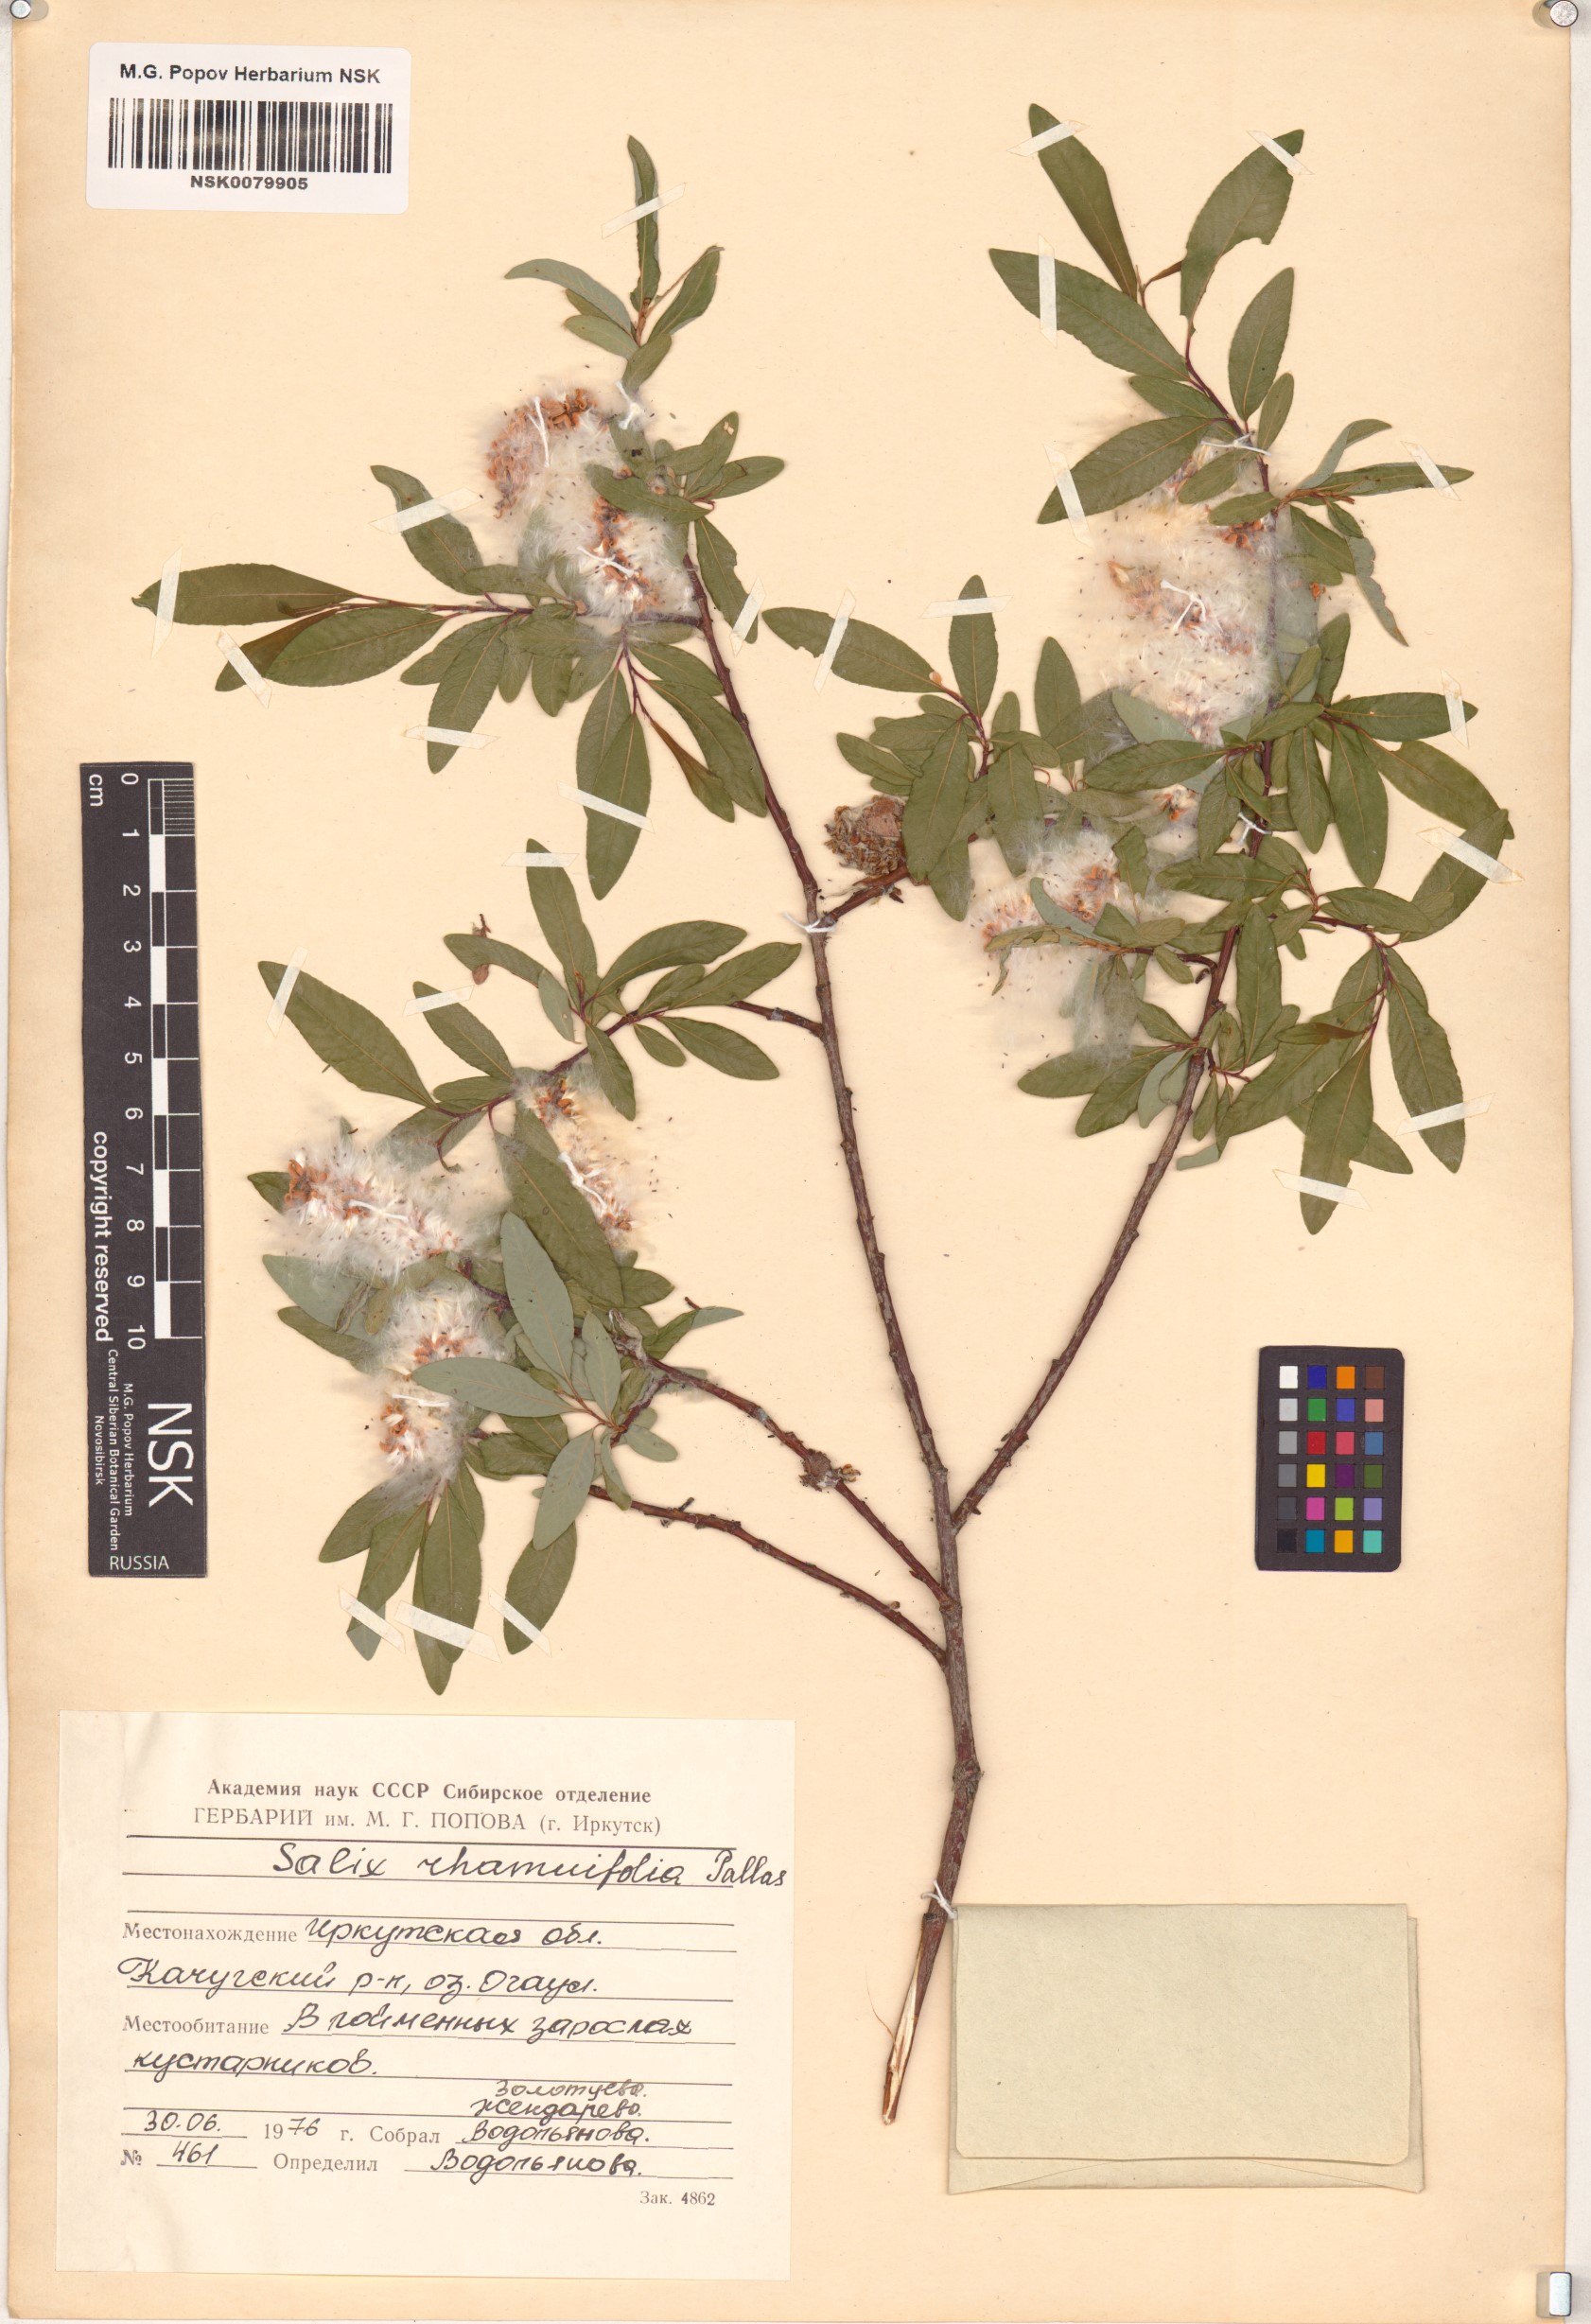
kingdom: Plantae
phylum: Tracheophyta
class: Magnoliopsida
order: Malpighiales
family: Salicaceae
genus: Salix
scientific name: Salix rhamnifolia
